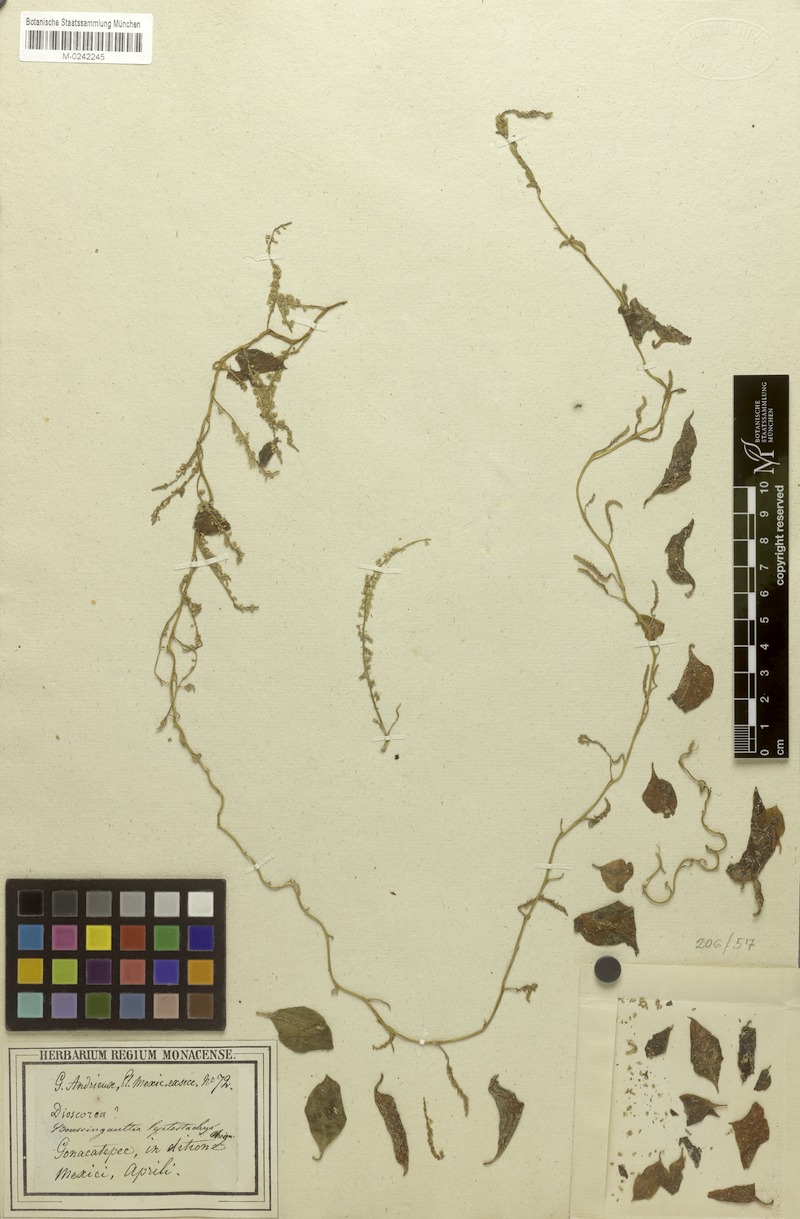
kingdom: Plantae
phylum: Tracheophyta
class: Magnoliopsida
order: Caryophyllales
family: Basellaceae
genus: Anredera
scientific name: Anredera vesicaria
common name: Sacasile
